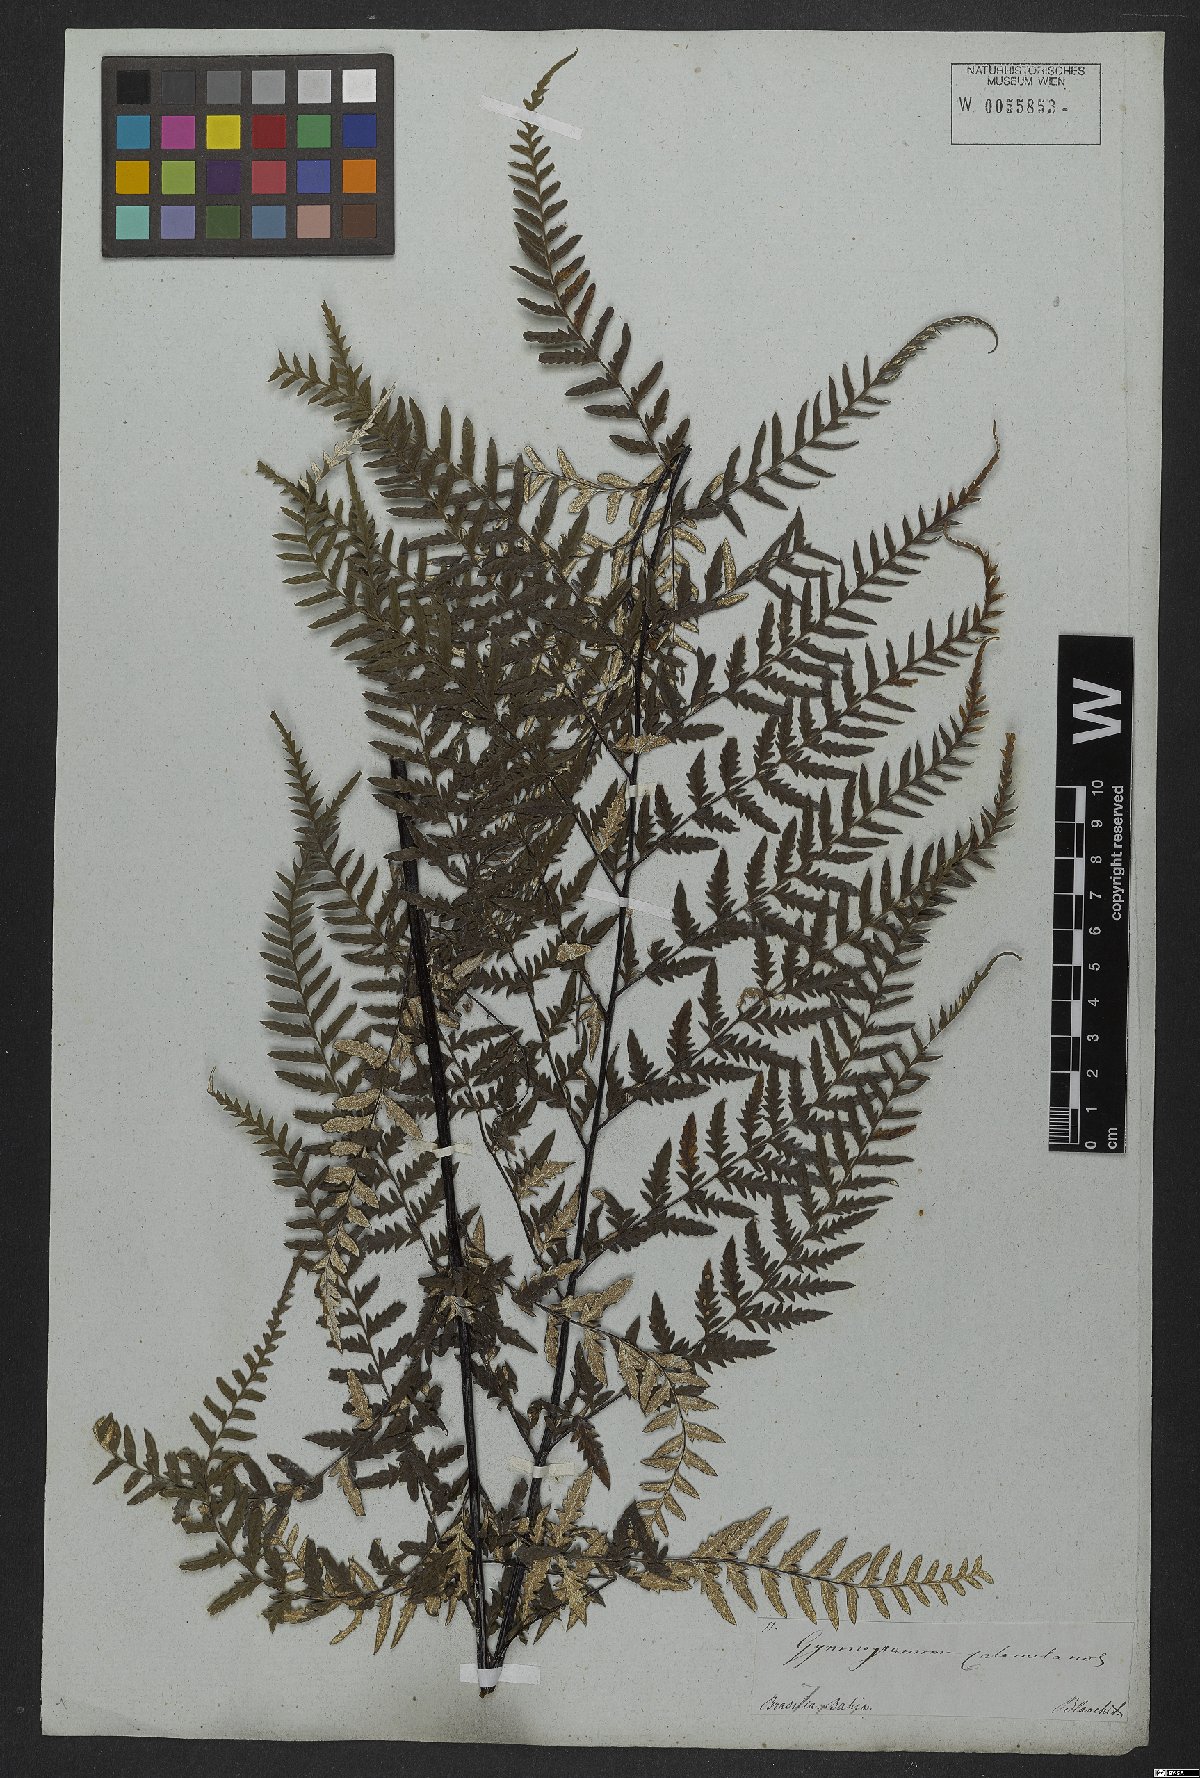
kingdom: Plantae
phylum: Tracheophyta
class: Polypodiopsida
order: Polypodiales
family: Pteridaceae
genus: Pityrogramma
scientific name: Pityrogramma calomelanos
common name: Dixie silverback fern
